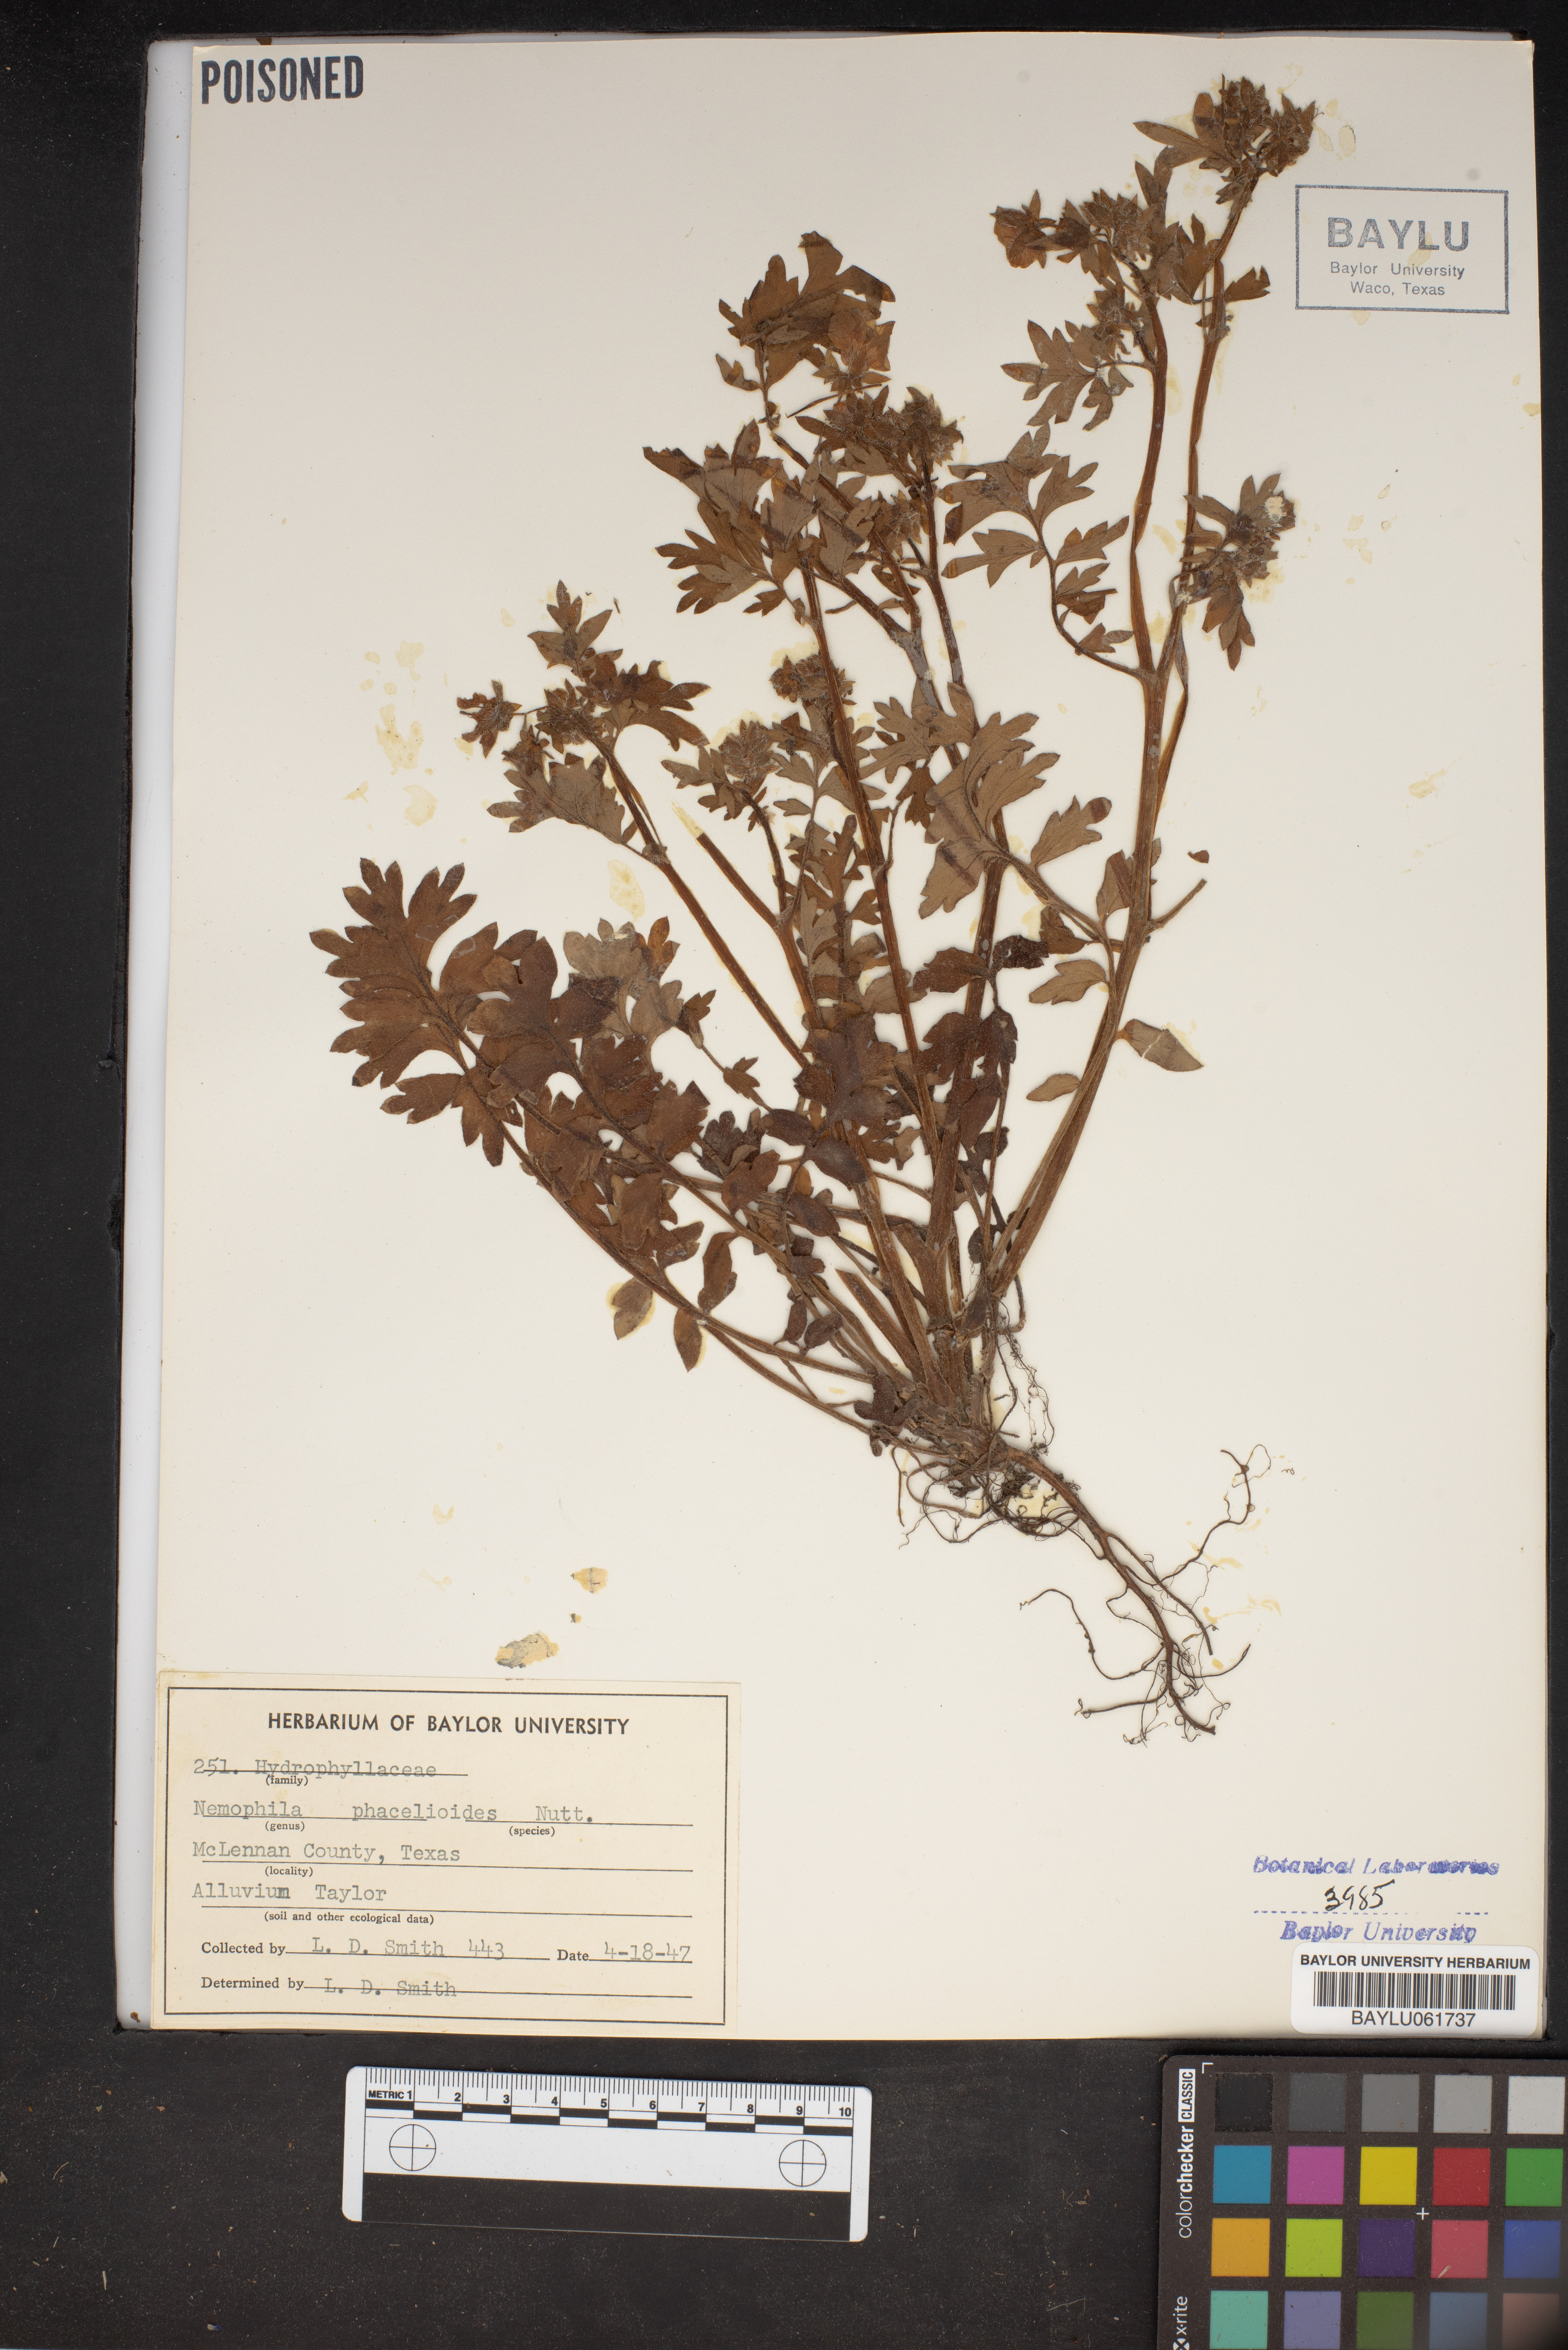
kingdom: Plantae
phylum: Tracheophyta
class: Magnoliopsida
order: Boraginales
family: Hydrophyllaceae
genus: Nemophila
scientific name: Nemophila phacelioides
